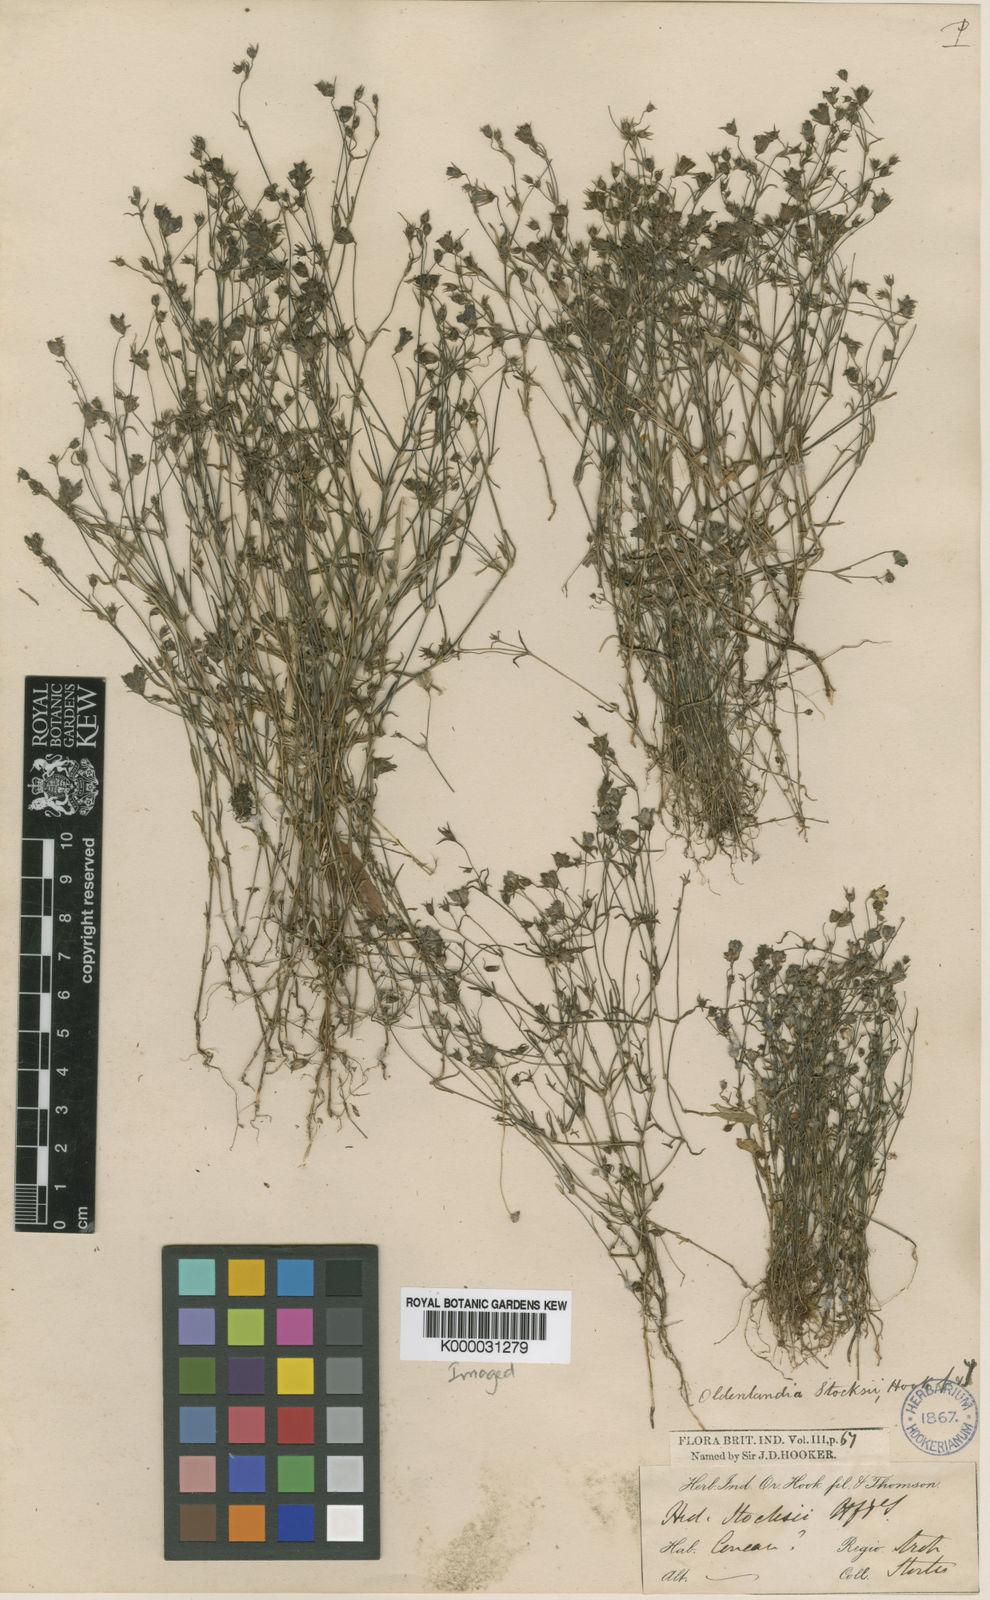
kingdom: Plantae
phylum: Tracheophyta
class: Magnoliopsida
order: Gentianales
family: Rubiaceae
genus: Oldenlandia
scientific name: Oldenlandia stocksii
